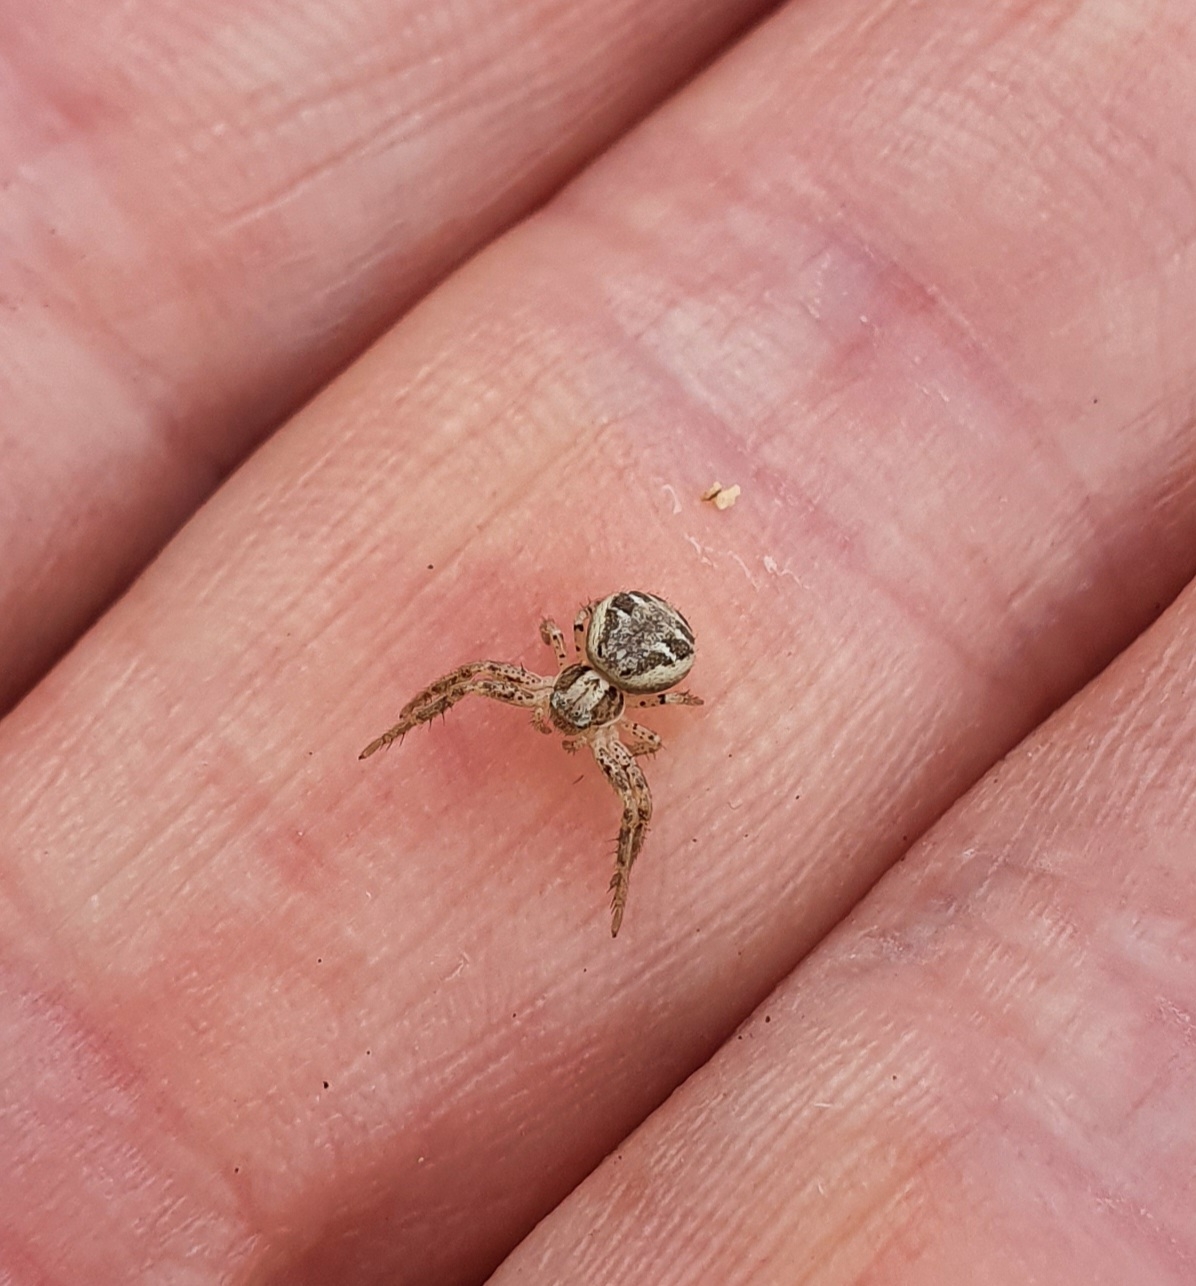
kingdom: Animalia
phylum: Arthropoda
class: Arachnida
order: Araneae
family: Thomisidae
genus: Xysticus
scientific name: Xysticus cristatus
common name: Almindelig krabbeedderkop
